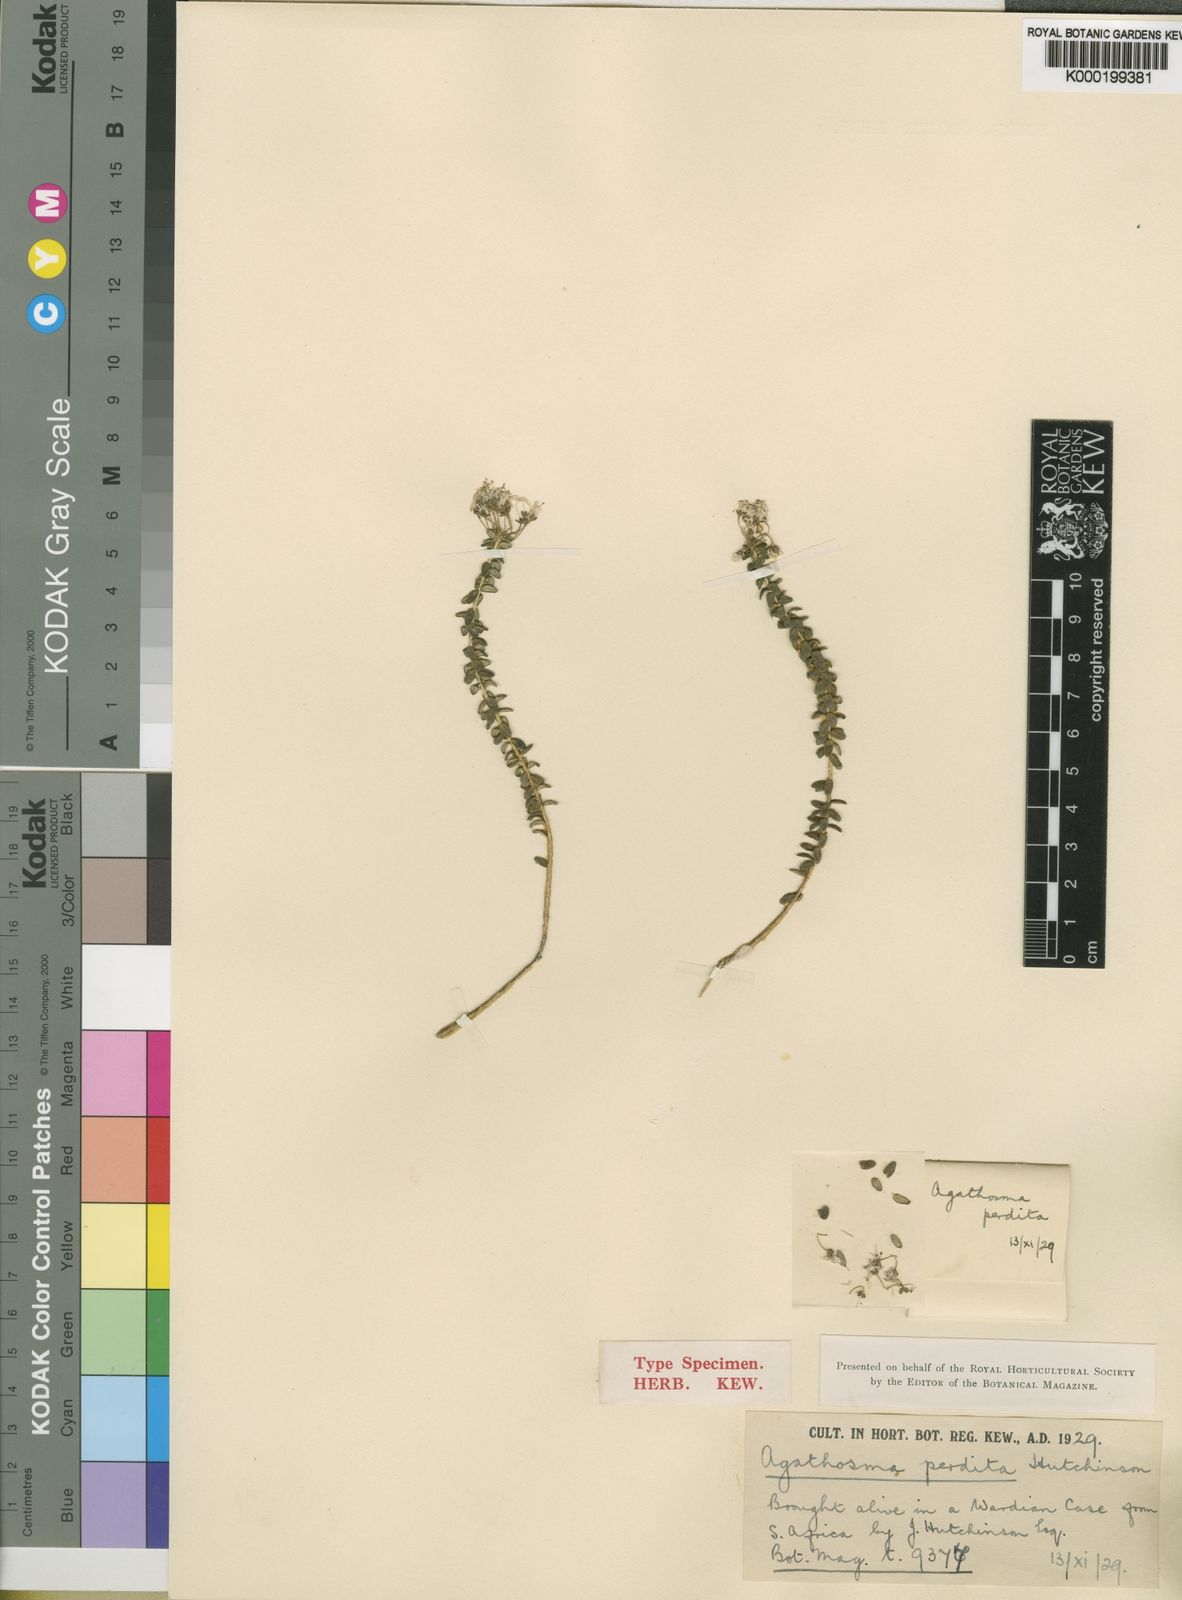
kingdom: Plantae
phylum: Tracheophyta
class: Magnoliopsida
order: Sapindales
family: Rutaceae
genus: Agathosma
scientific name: Agathosma lanceolata
